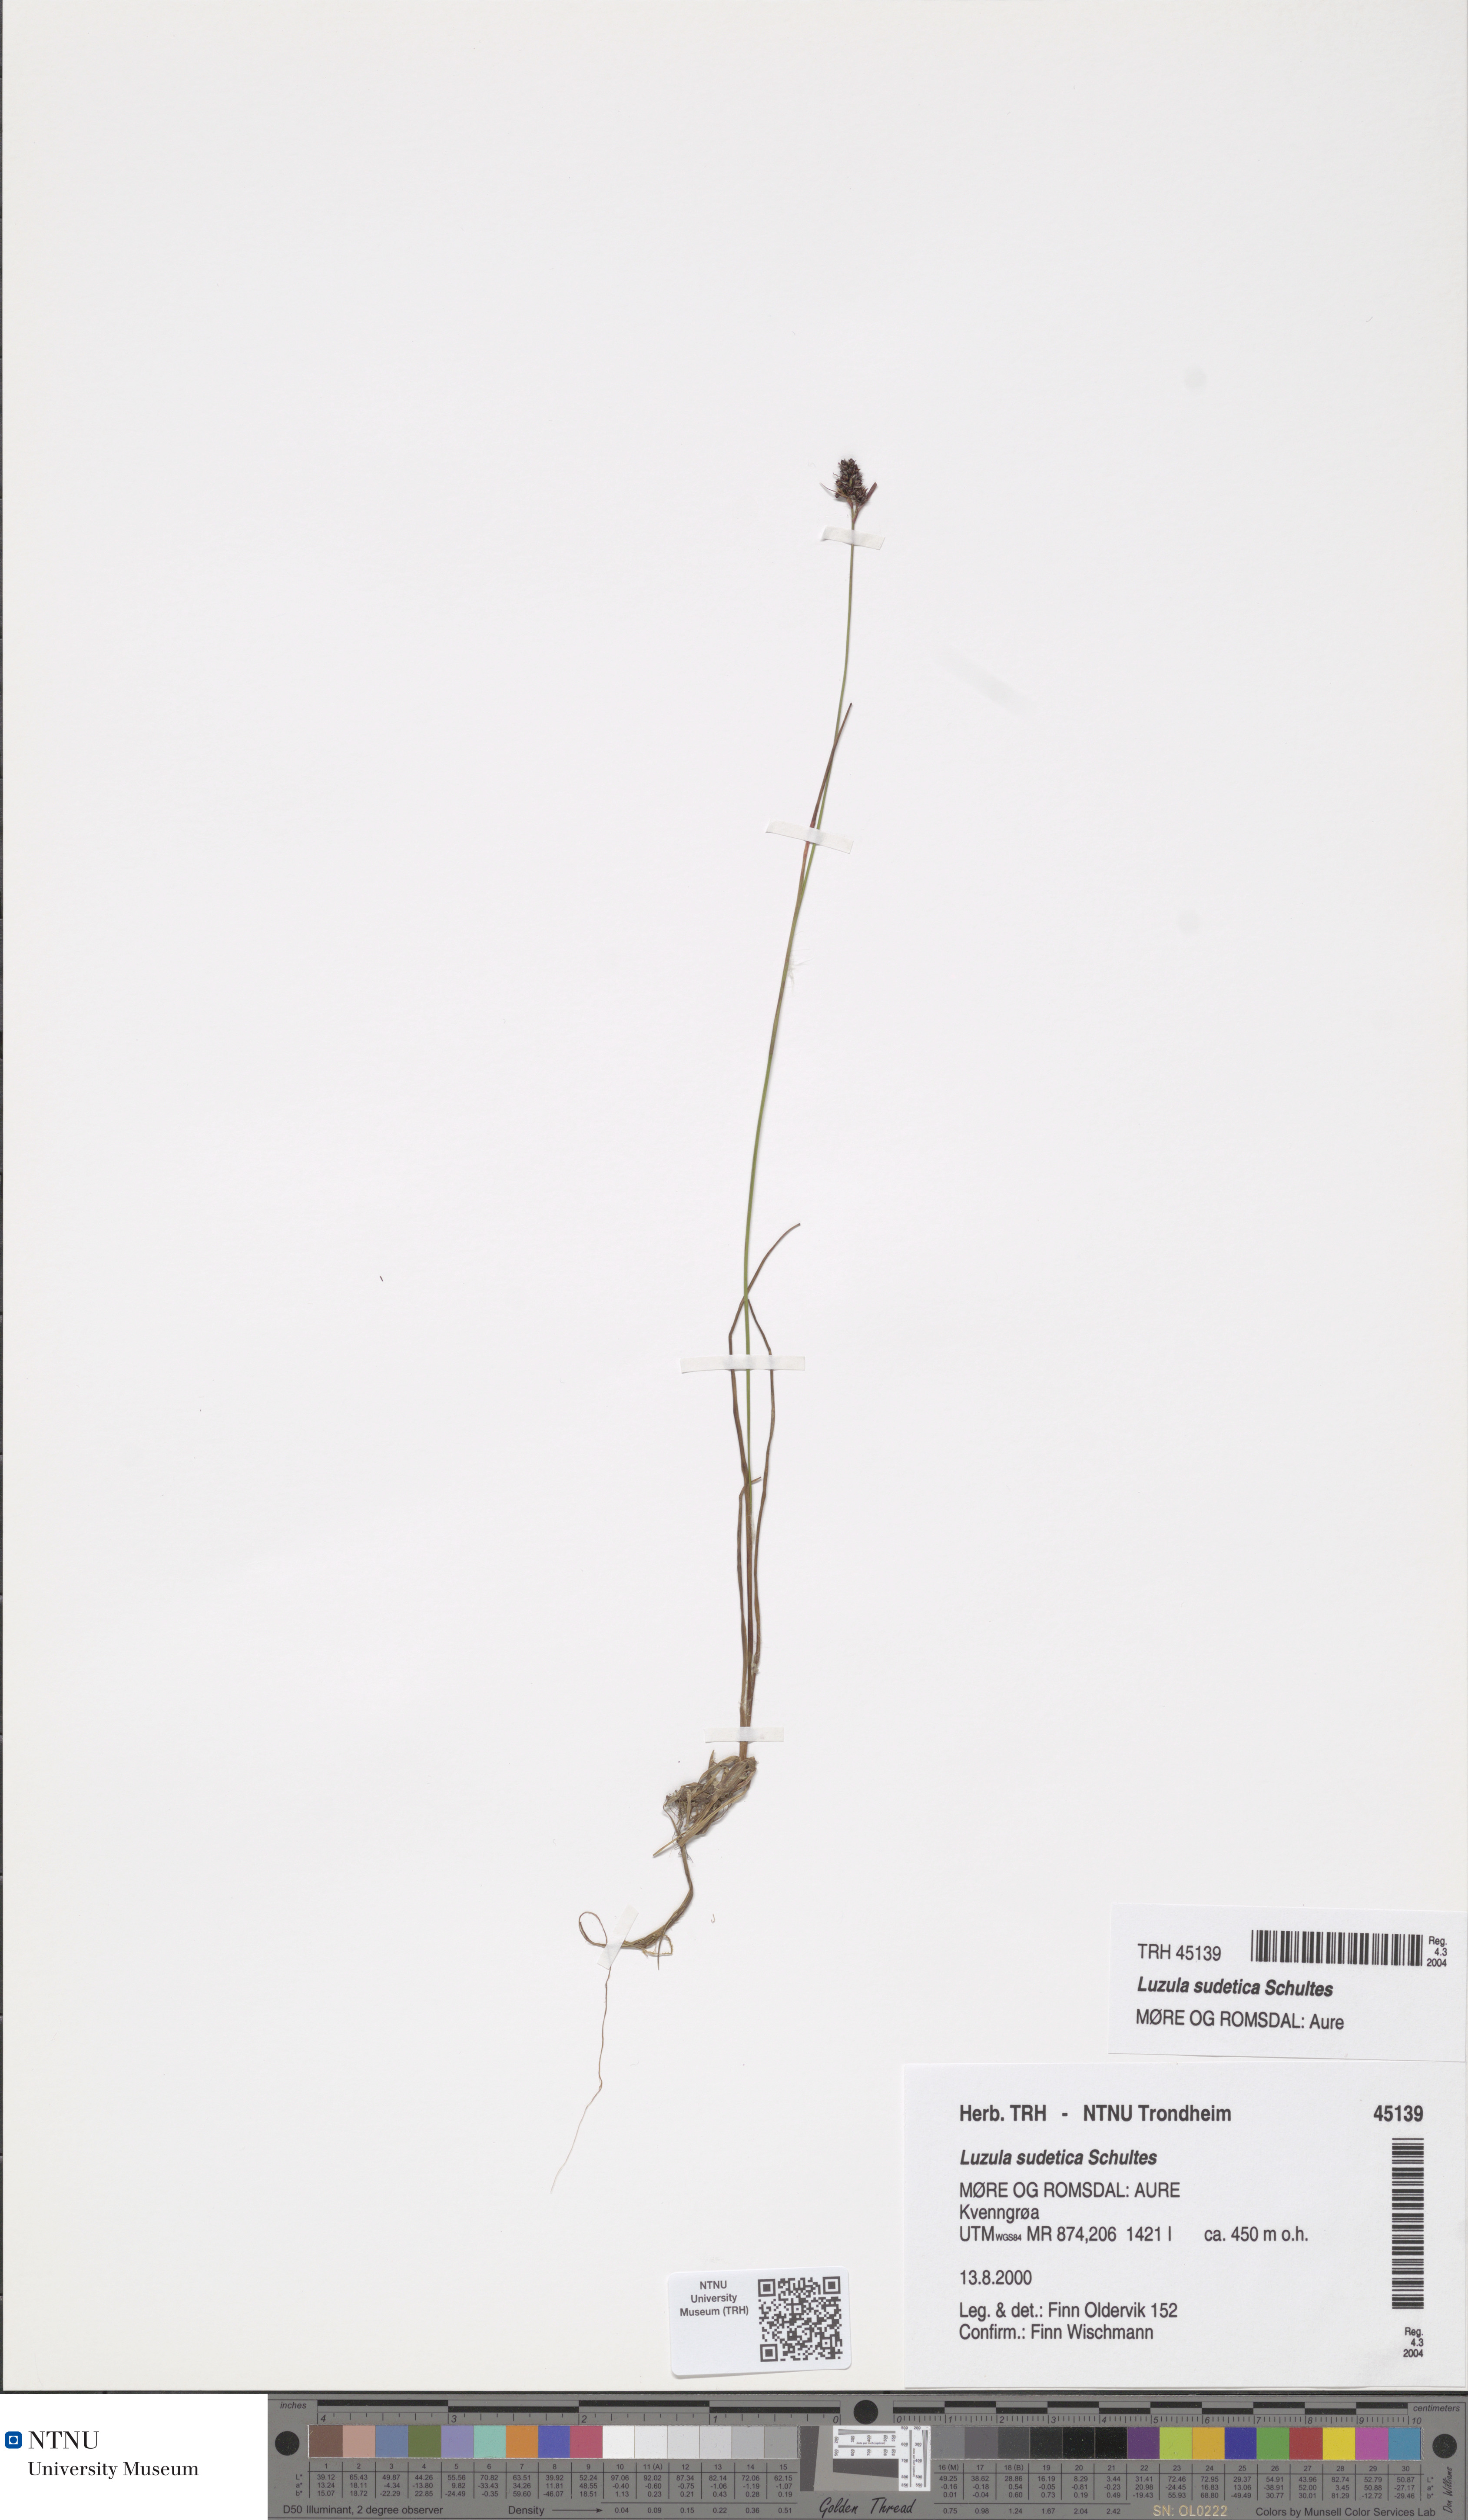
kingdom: Plantae
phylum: Tracheophyta
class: Liliopsida
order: Poales
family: Juncaceae
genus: Luzula
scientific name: Luzula sudetica
